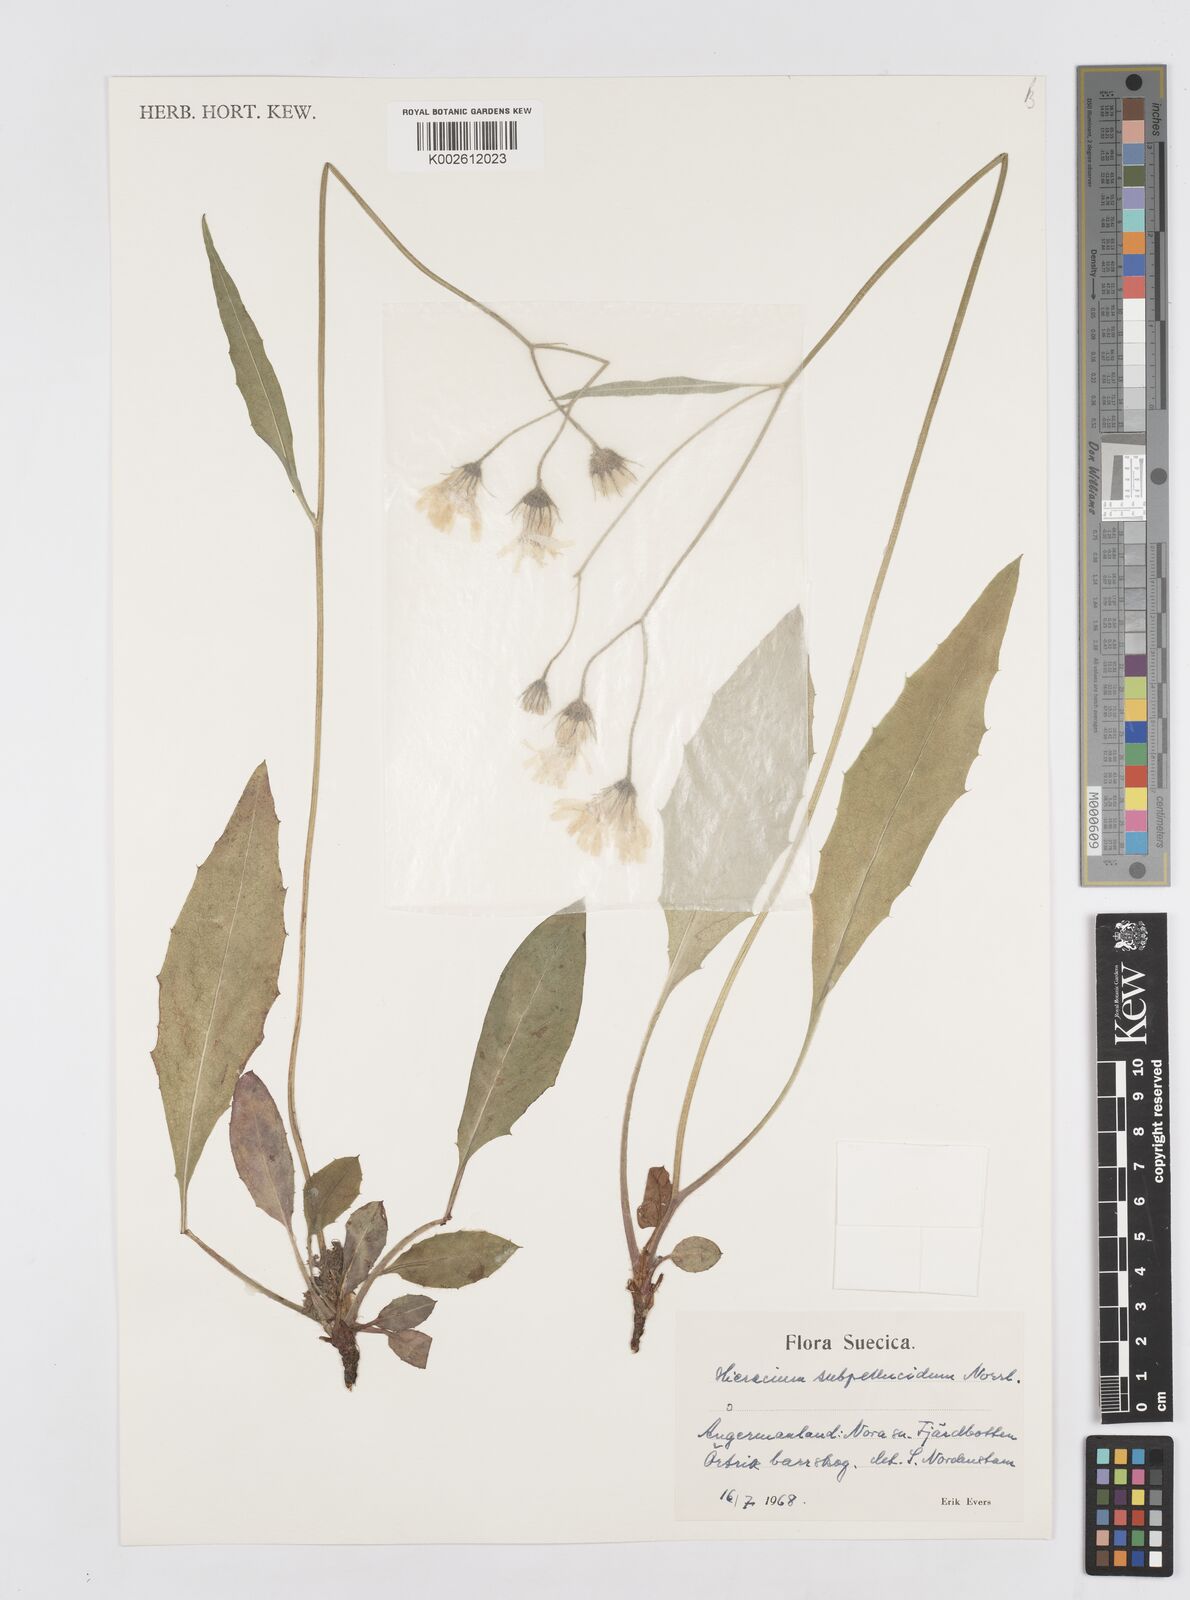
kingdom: Plantae
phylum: Tracheophyta
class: Magnoliopsida
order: Asterales
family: Asteraceae
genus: Hieracium
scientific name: Hieracium subpellucidum
